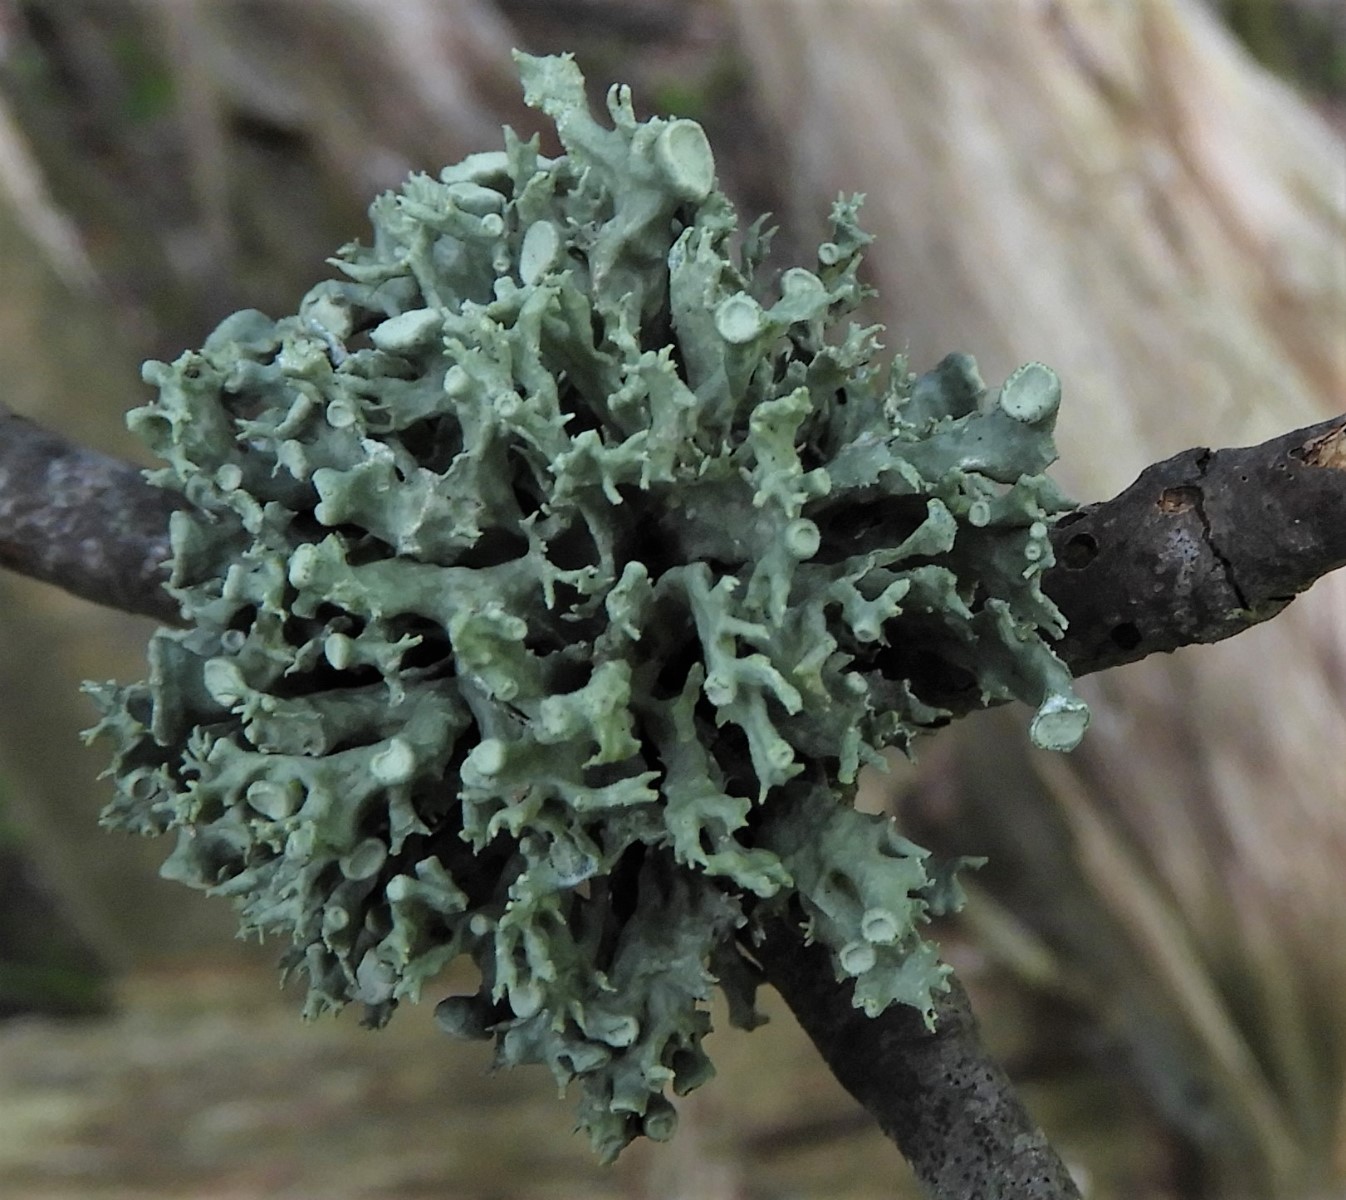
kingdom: Fungi
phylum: Ascomycota
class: Lecanoromycetes
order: Lecanorales
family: Ramalinaceae
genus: Ramalina
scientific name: Ramalina fastigiata
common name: tue-grenlav
